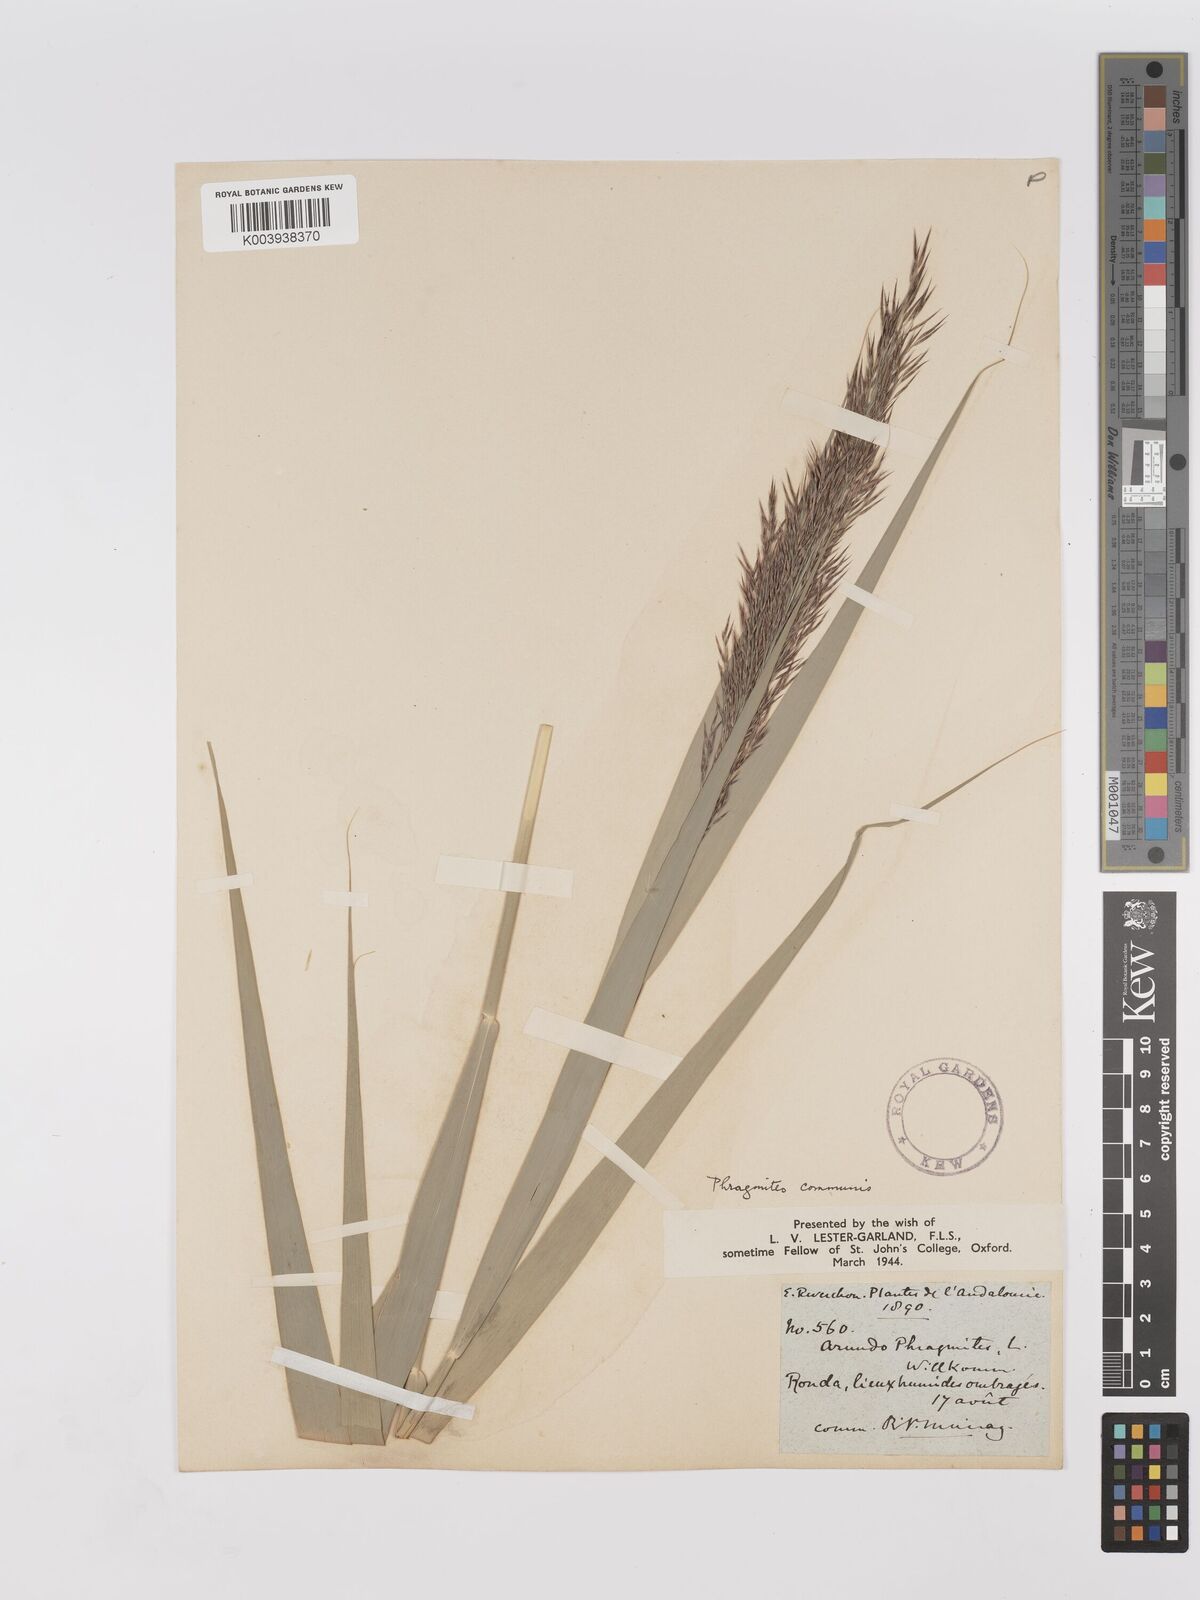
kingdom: Plantae
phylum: Tracheophyta
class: Liliopsida
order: Poales
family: Poaceae
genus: Phragmites
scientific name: Phragmites australis
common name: Common reed
